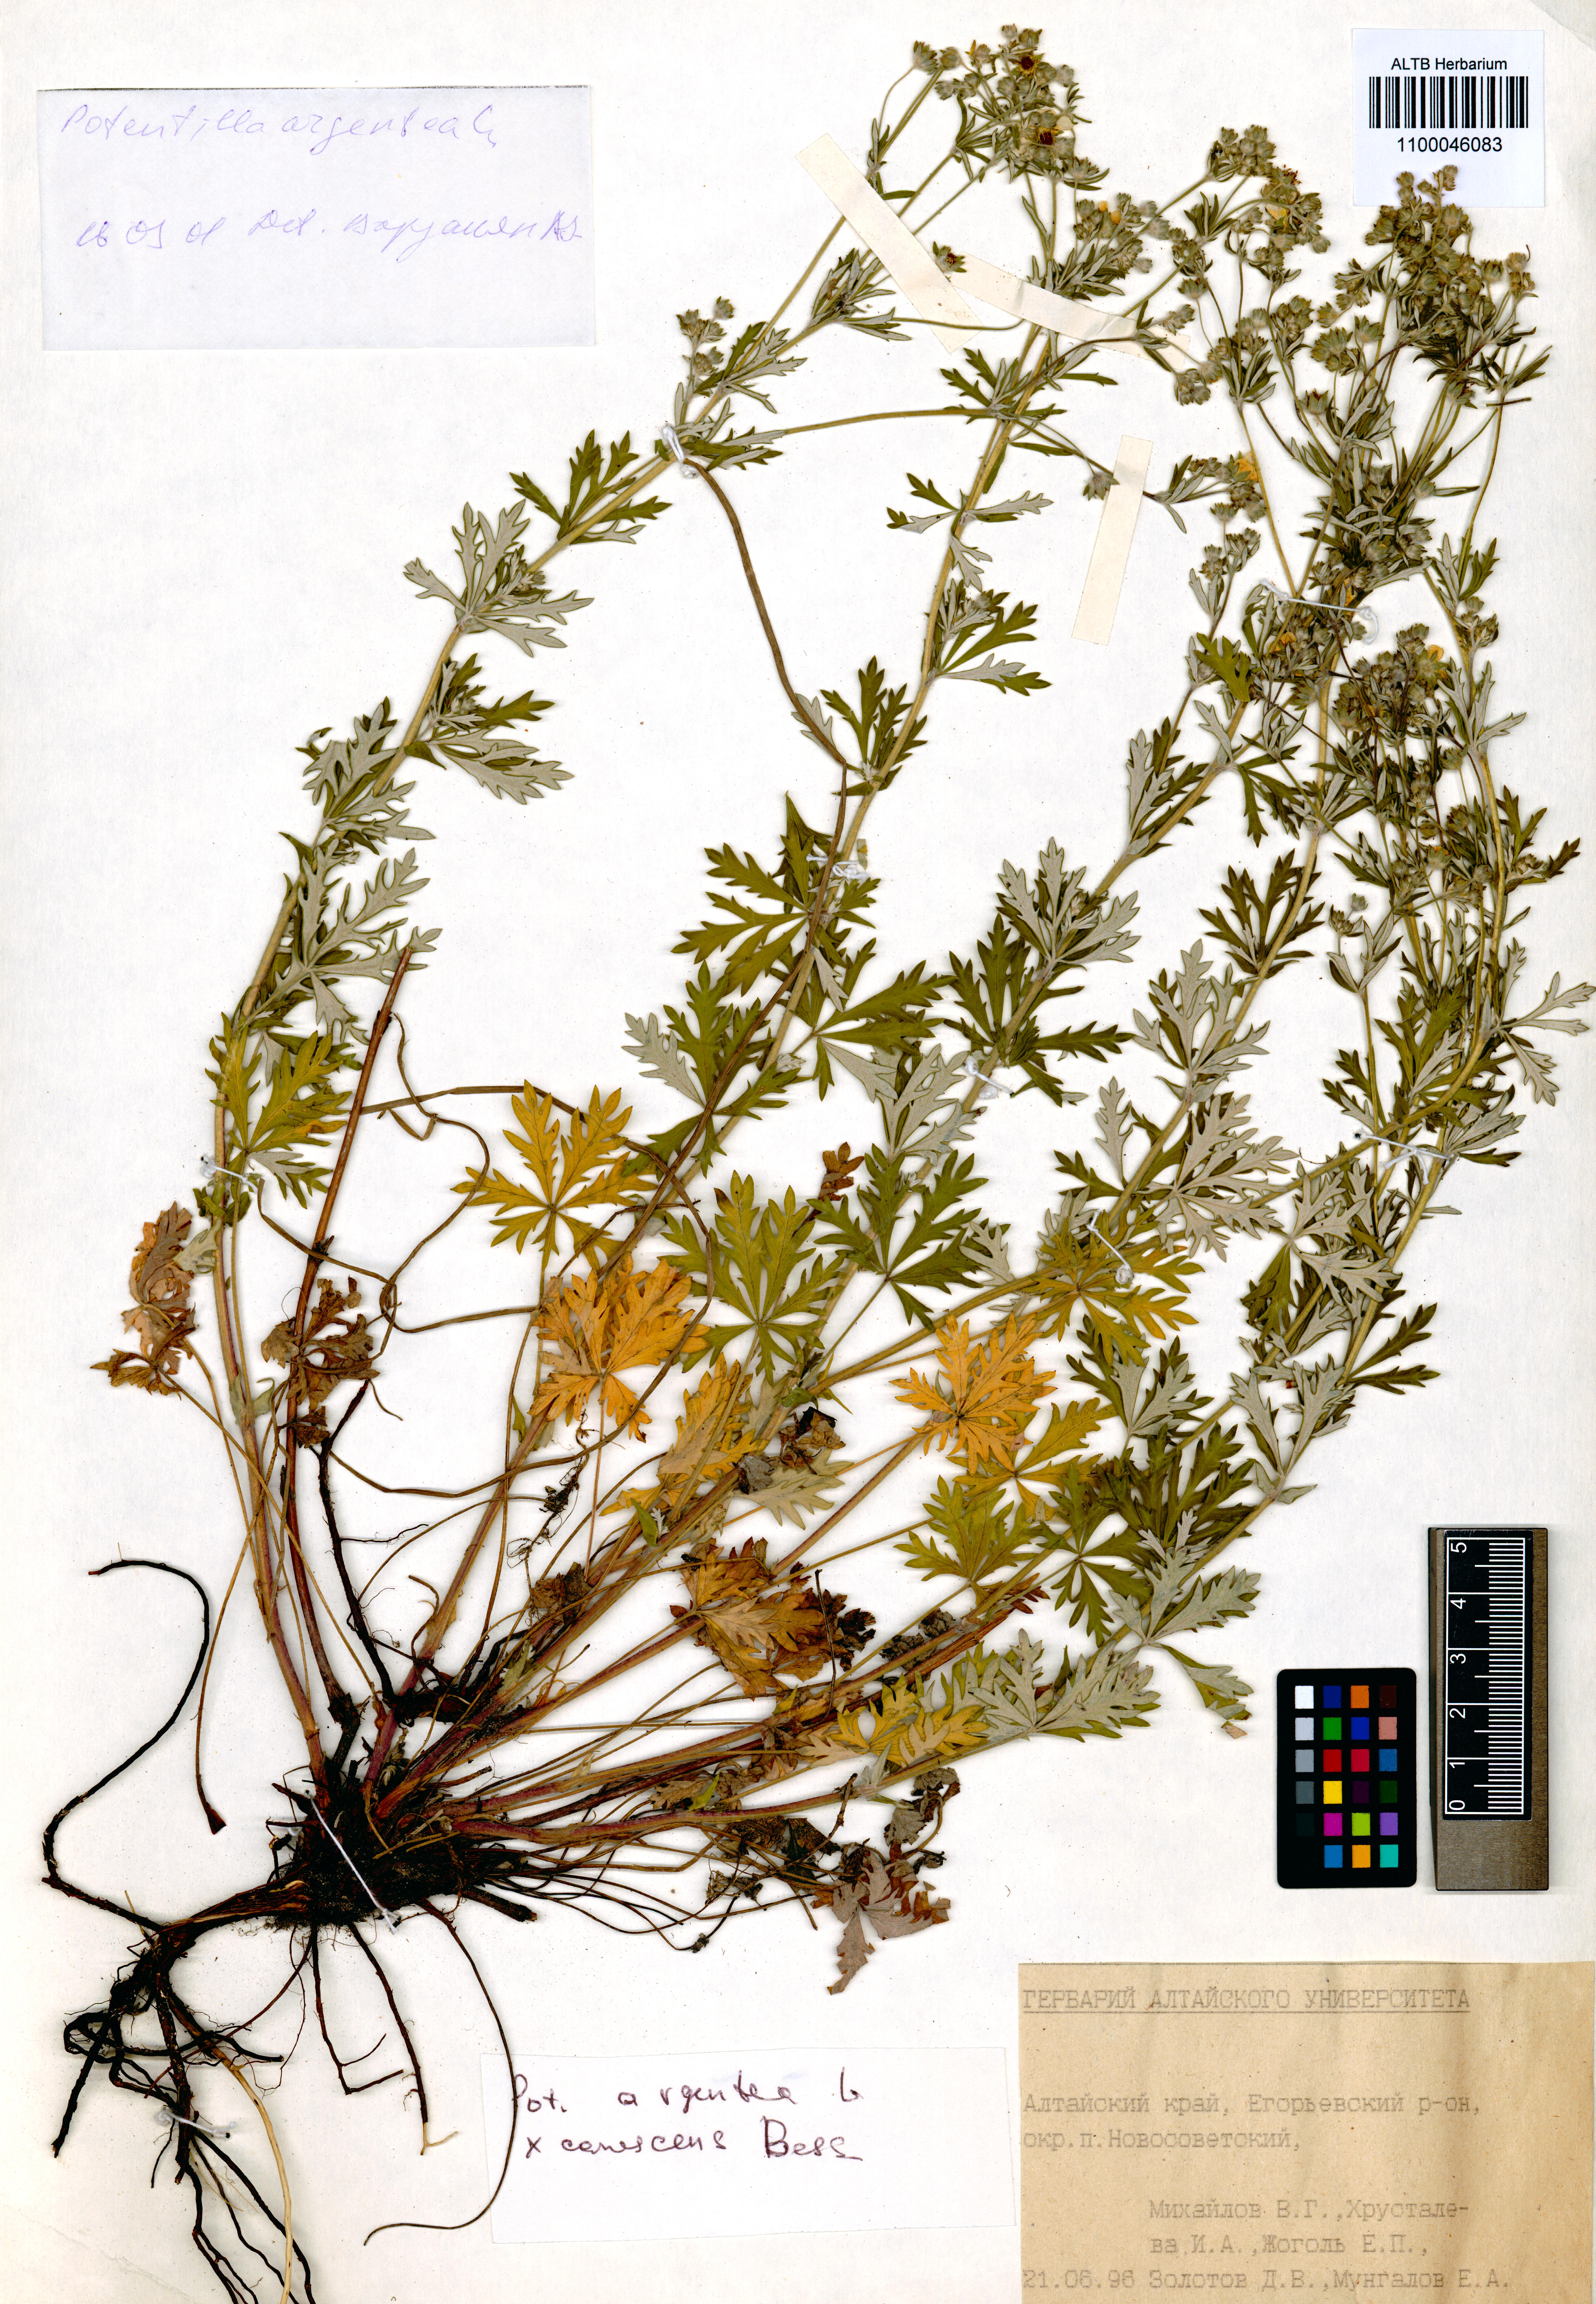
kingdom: Plantae
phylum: Tracheophyta
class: Magnoliopsida
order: Rosales
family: Rosaceae
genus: Potentilla
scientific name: Potentilla argentea
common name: Hoary cinquefoil
